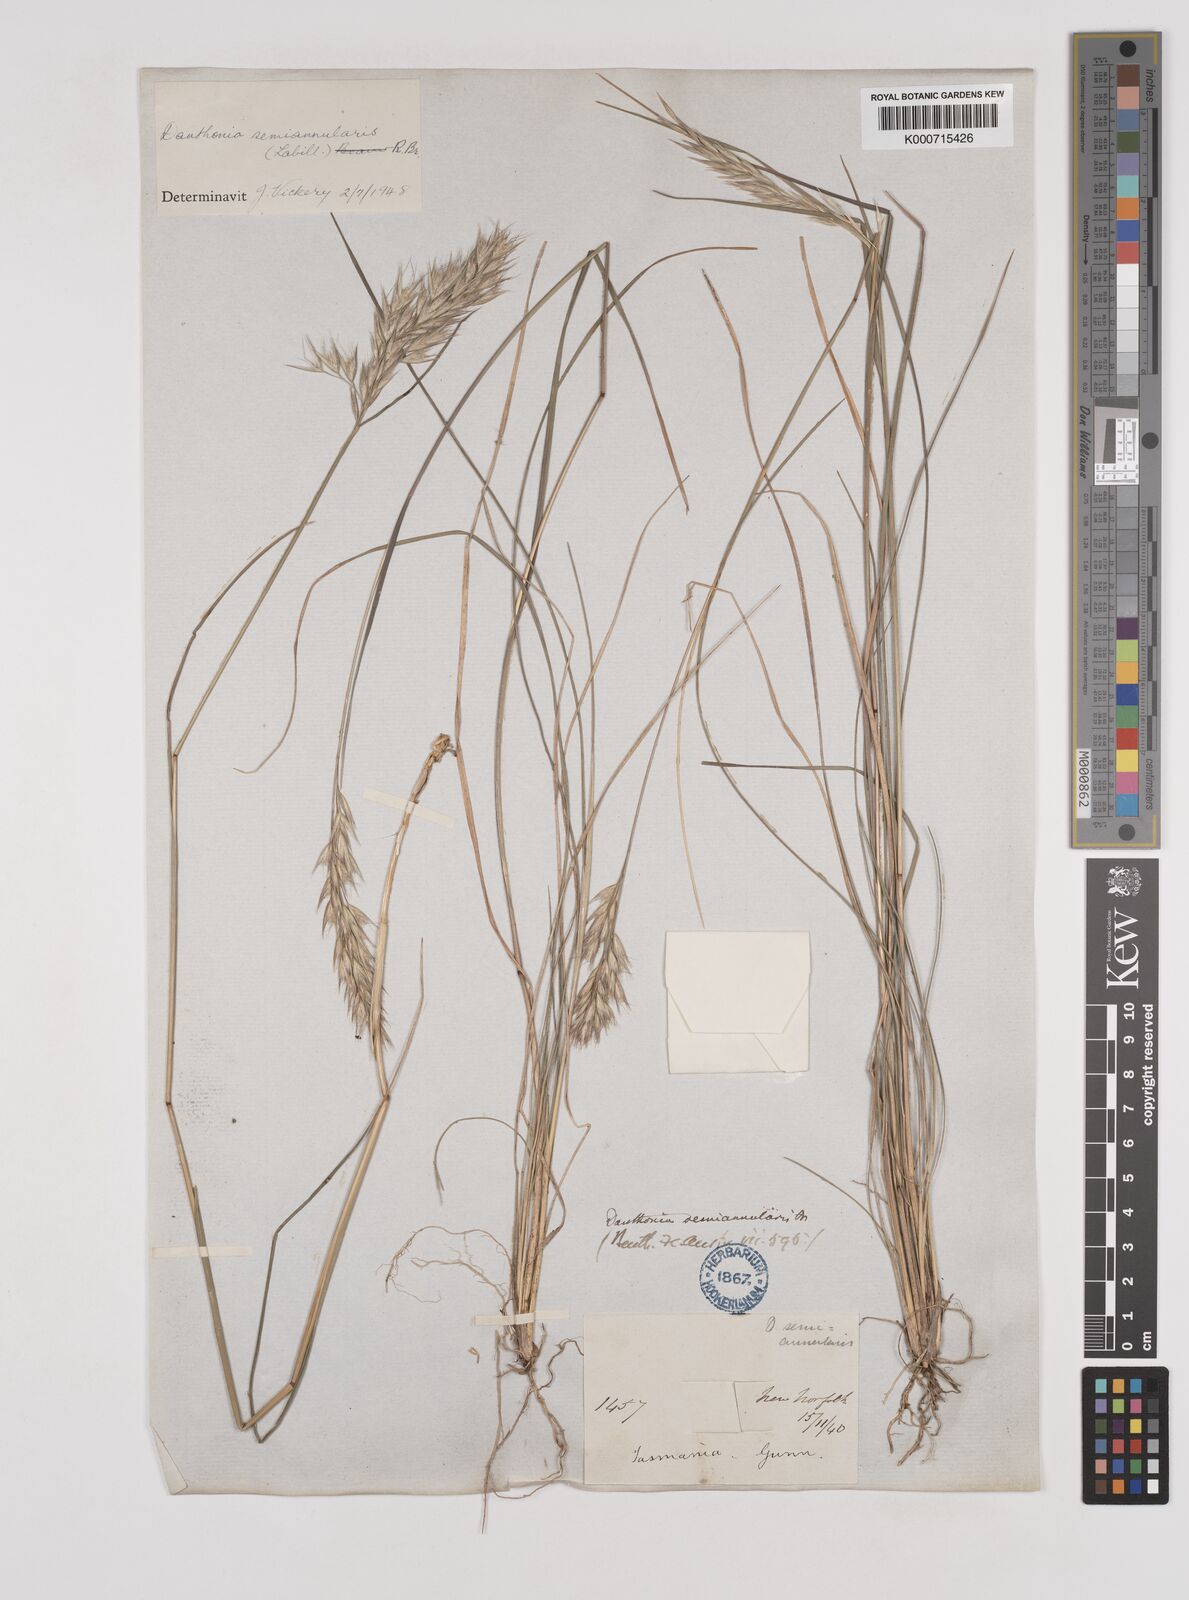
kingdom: Plantae
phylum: Tracheophyta
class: Liliopsida
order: Poales
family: Poaceae
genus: Rytidosperma
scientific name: Rytidosperma semiannulare
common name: Tasmanian wallaby grass
